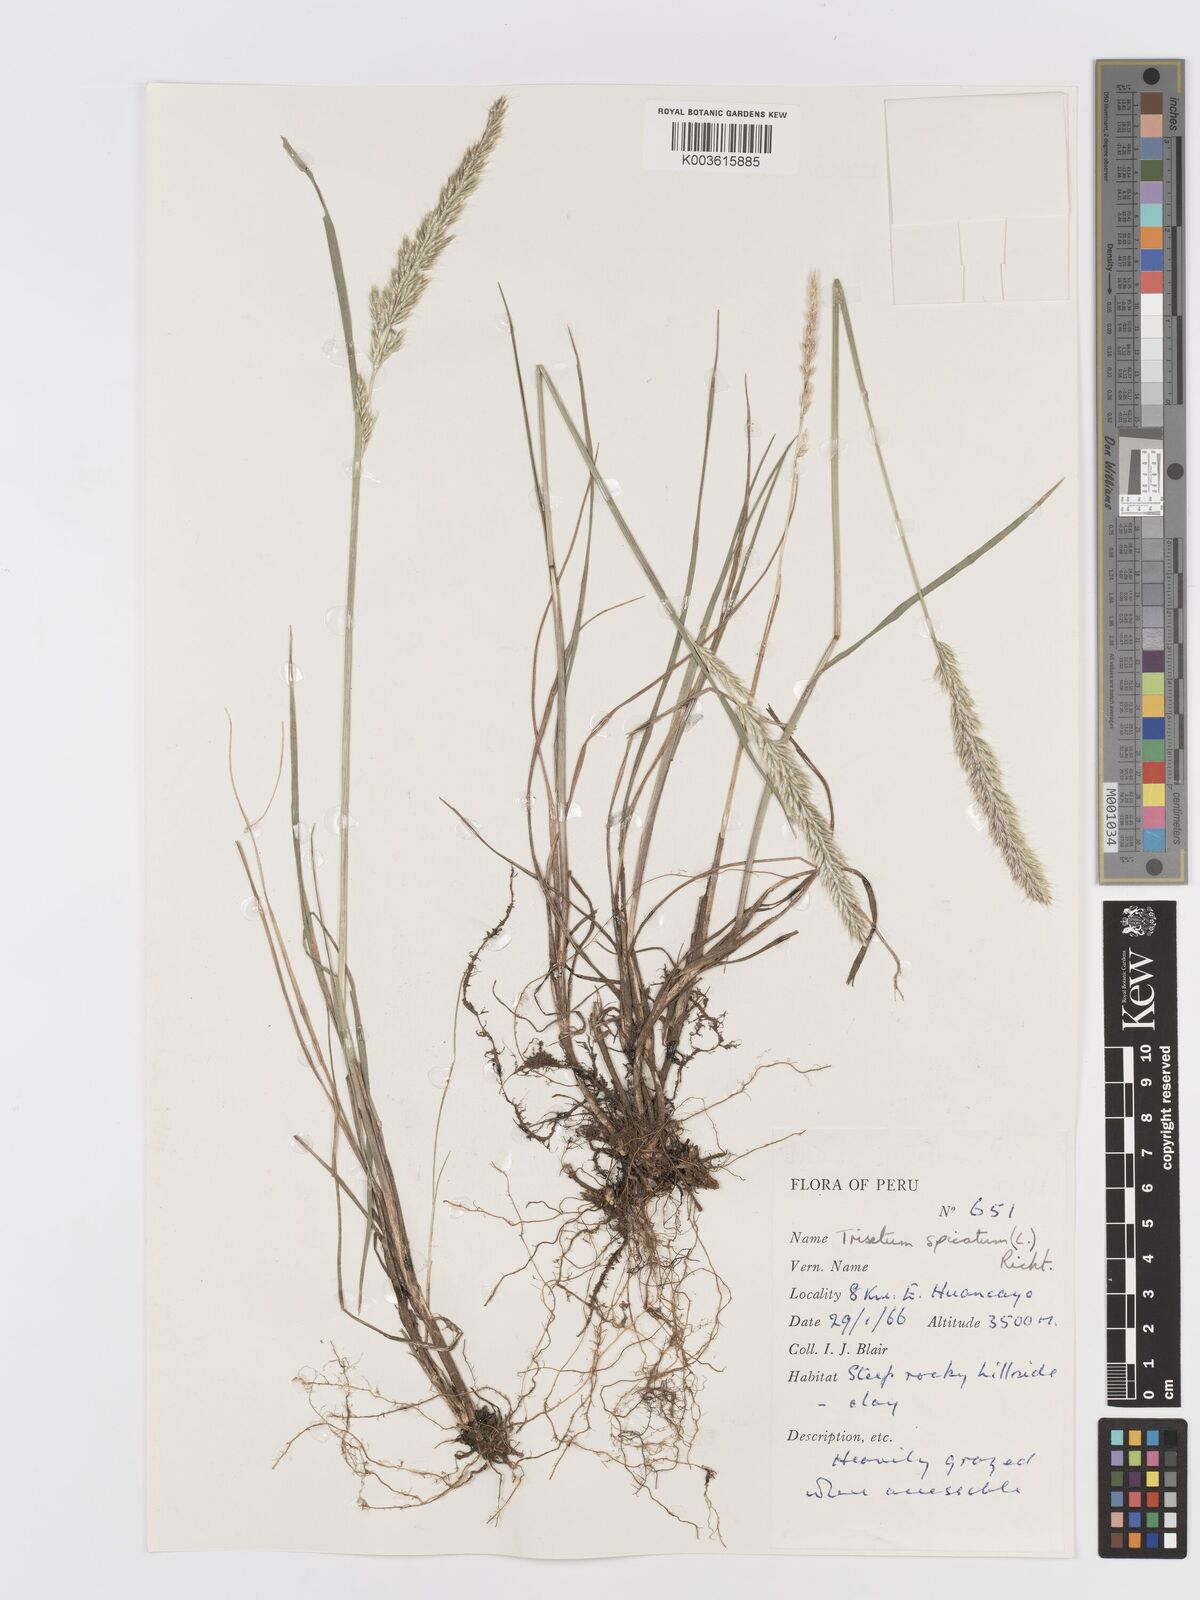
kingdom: Plantae
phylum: Tracheophyta
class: Liliopsida
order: Poales
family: Poaceae
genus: Koeleria
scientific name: Koeleria spicata
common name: Mountain trisetum
